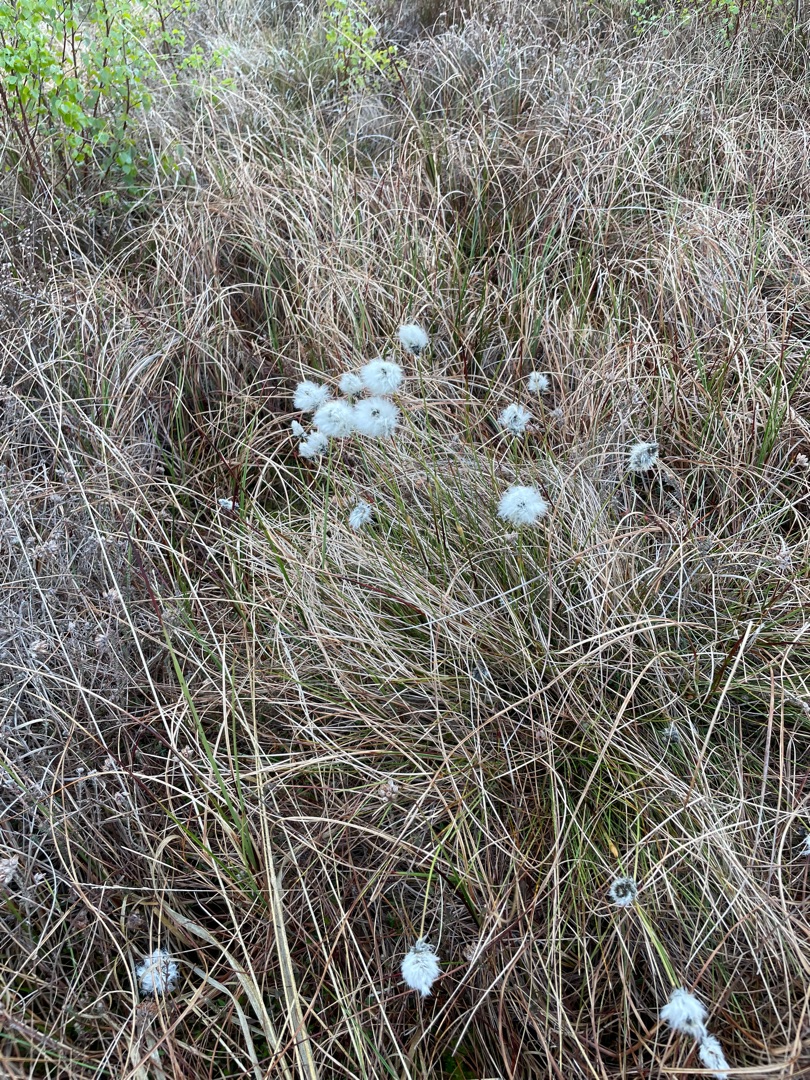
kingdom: Plantae
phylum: Tracheophyta
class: Liliopsida
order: Poales
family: Cyperaceae
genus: Eriophorum
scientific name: Eriophorum vaginatum
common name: Tue-kæruld
